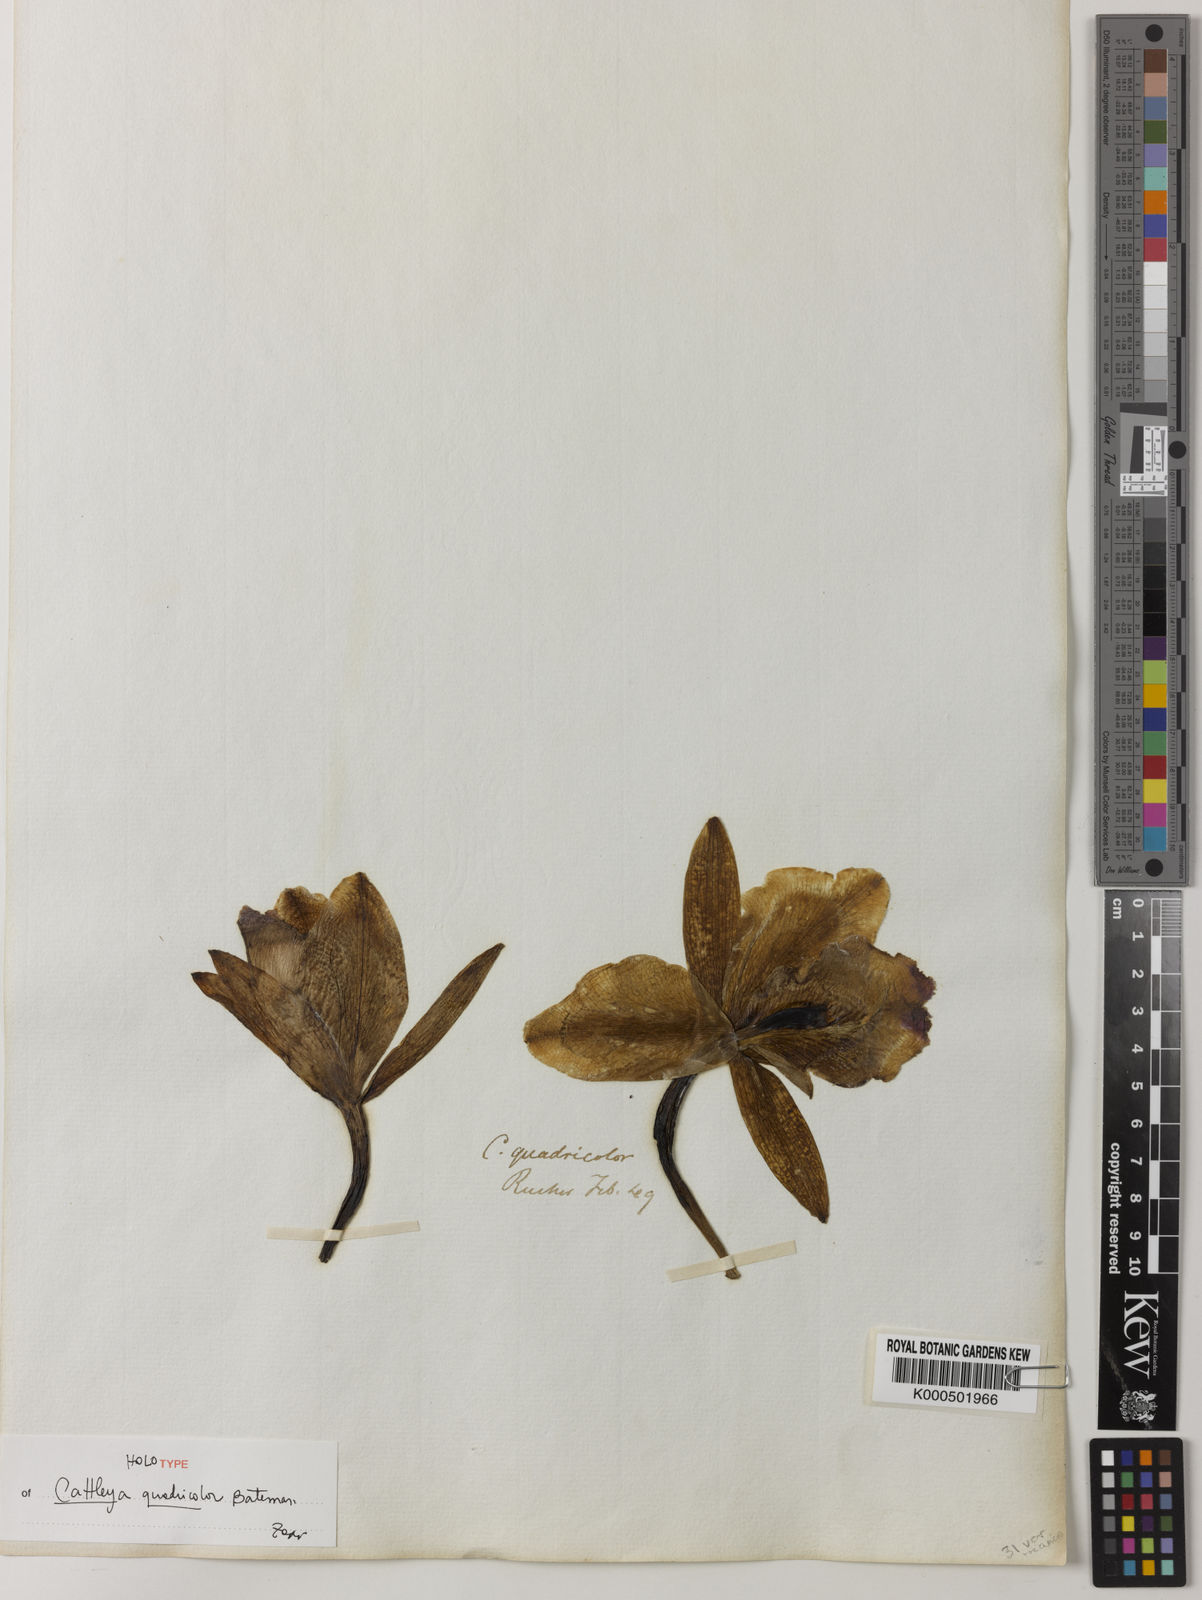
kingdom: Plantae
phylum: Tracheophyta
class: Liliopsida
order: Asparagales
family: Orchidaceae
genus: Cattleya
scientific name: Cattleya
